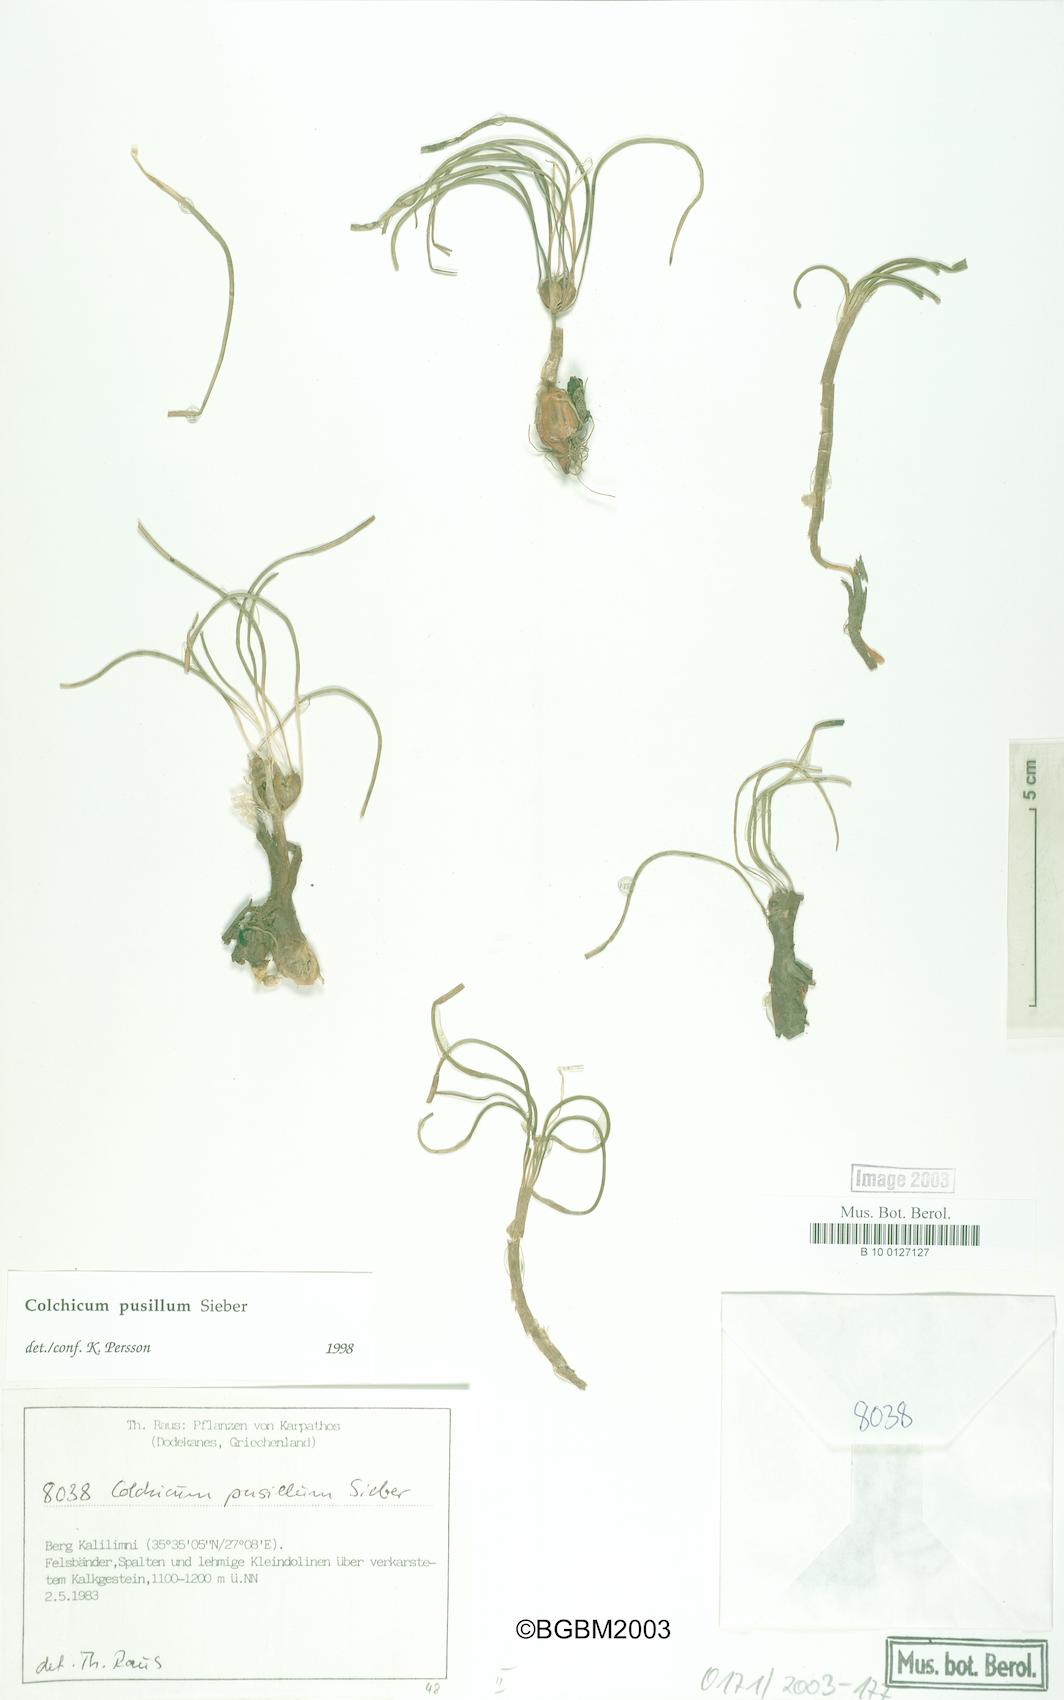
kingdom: Plantae
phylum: Tracheophyta
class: Liliopsida
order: Liliales
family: Colchicaceae
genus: Colchicum
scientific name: Colchicum pusillum
